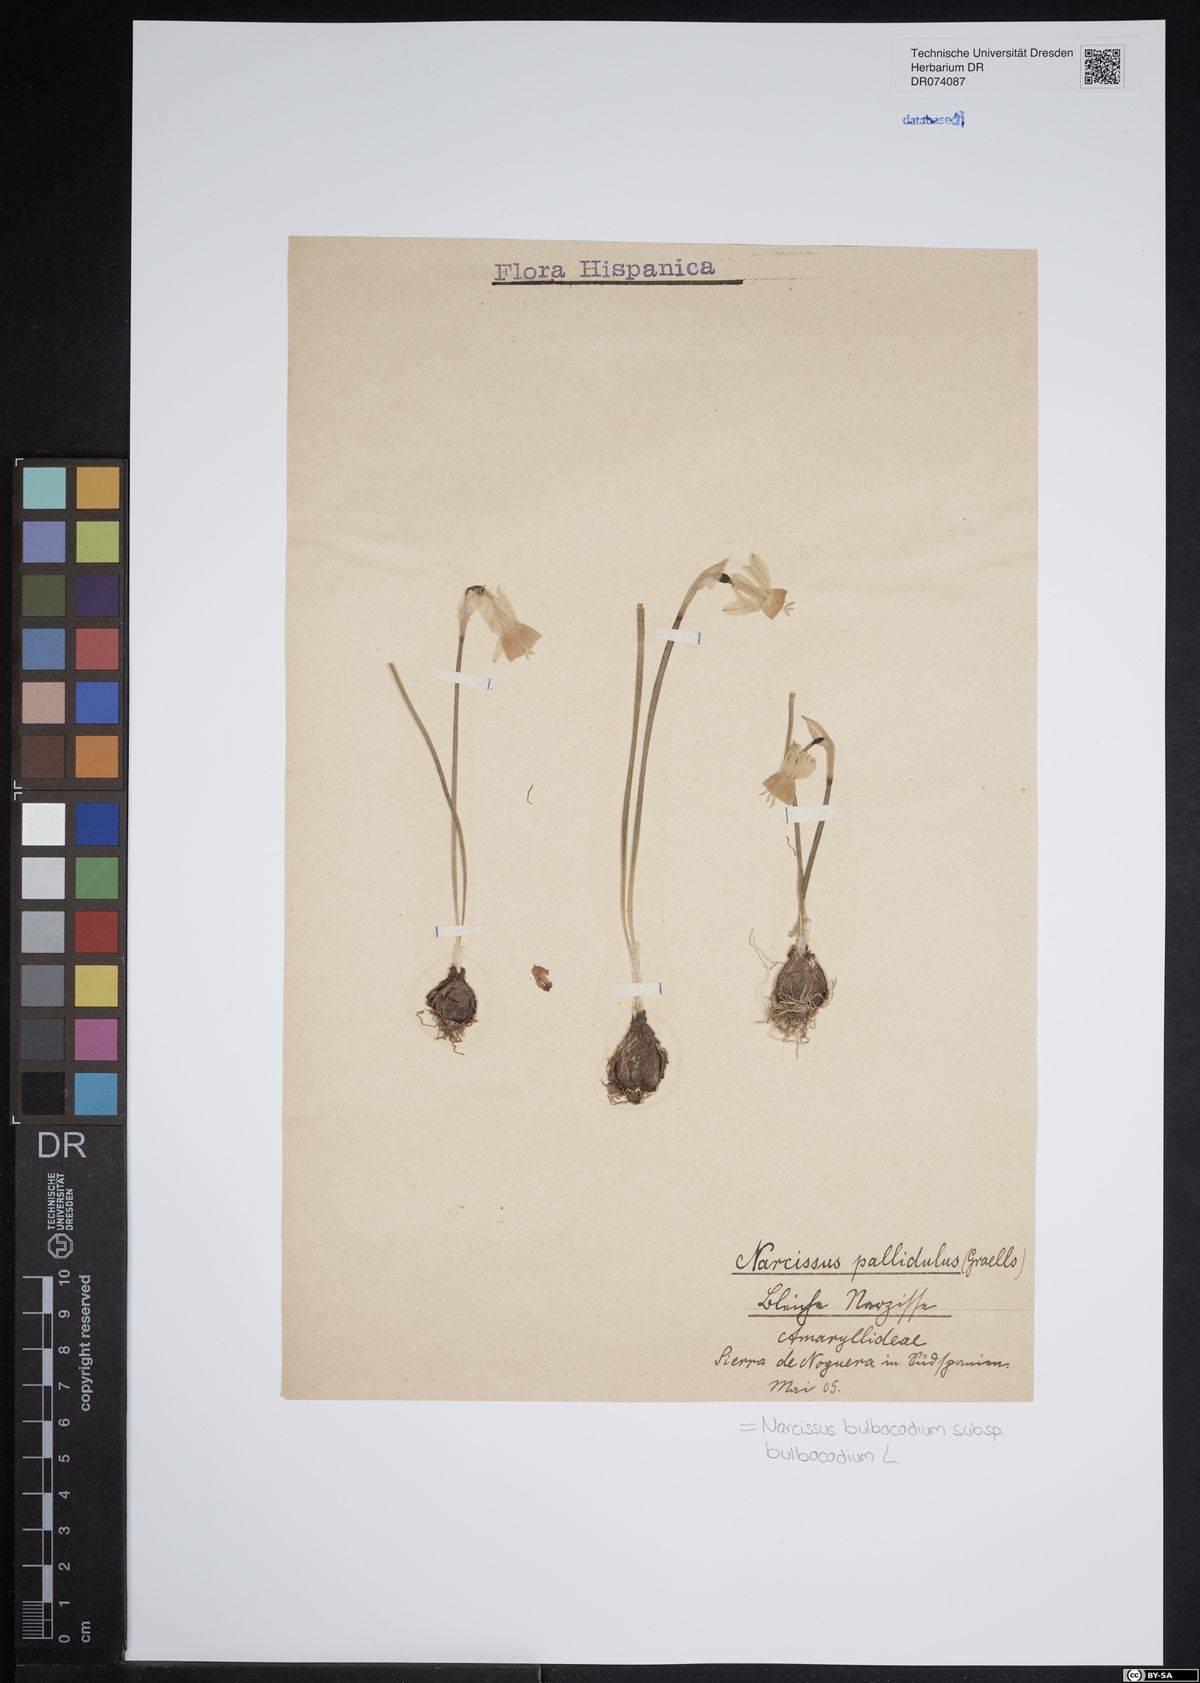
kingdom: Plantae
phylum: Tracheophyta
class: Liliopsida
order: Asparagales
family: Amaryllidaceae
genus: Narcissus
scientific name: Narcissus bulbocodium
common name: Hoop-petticoat daffodil
